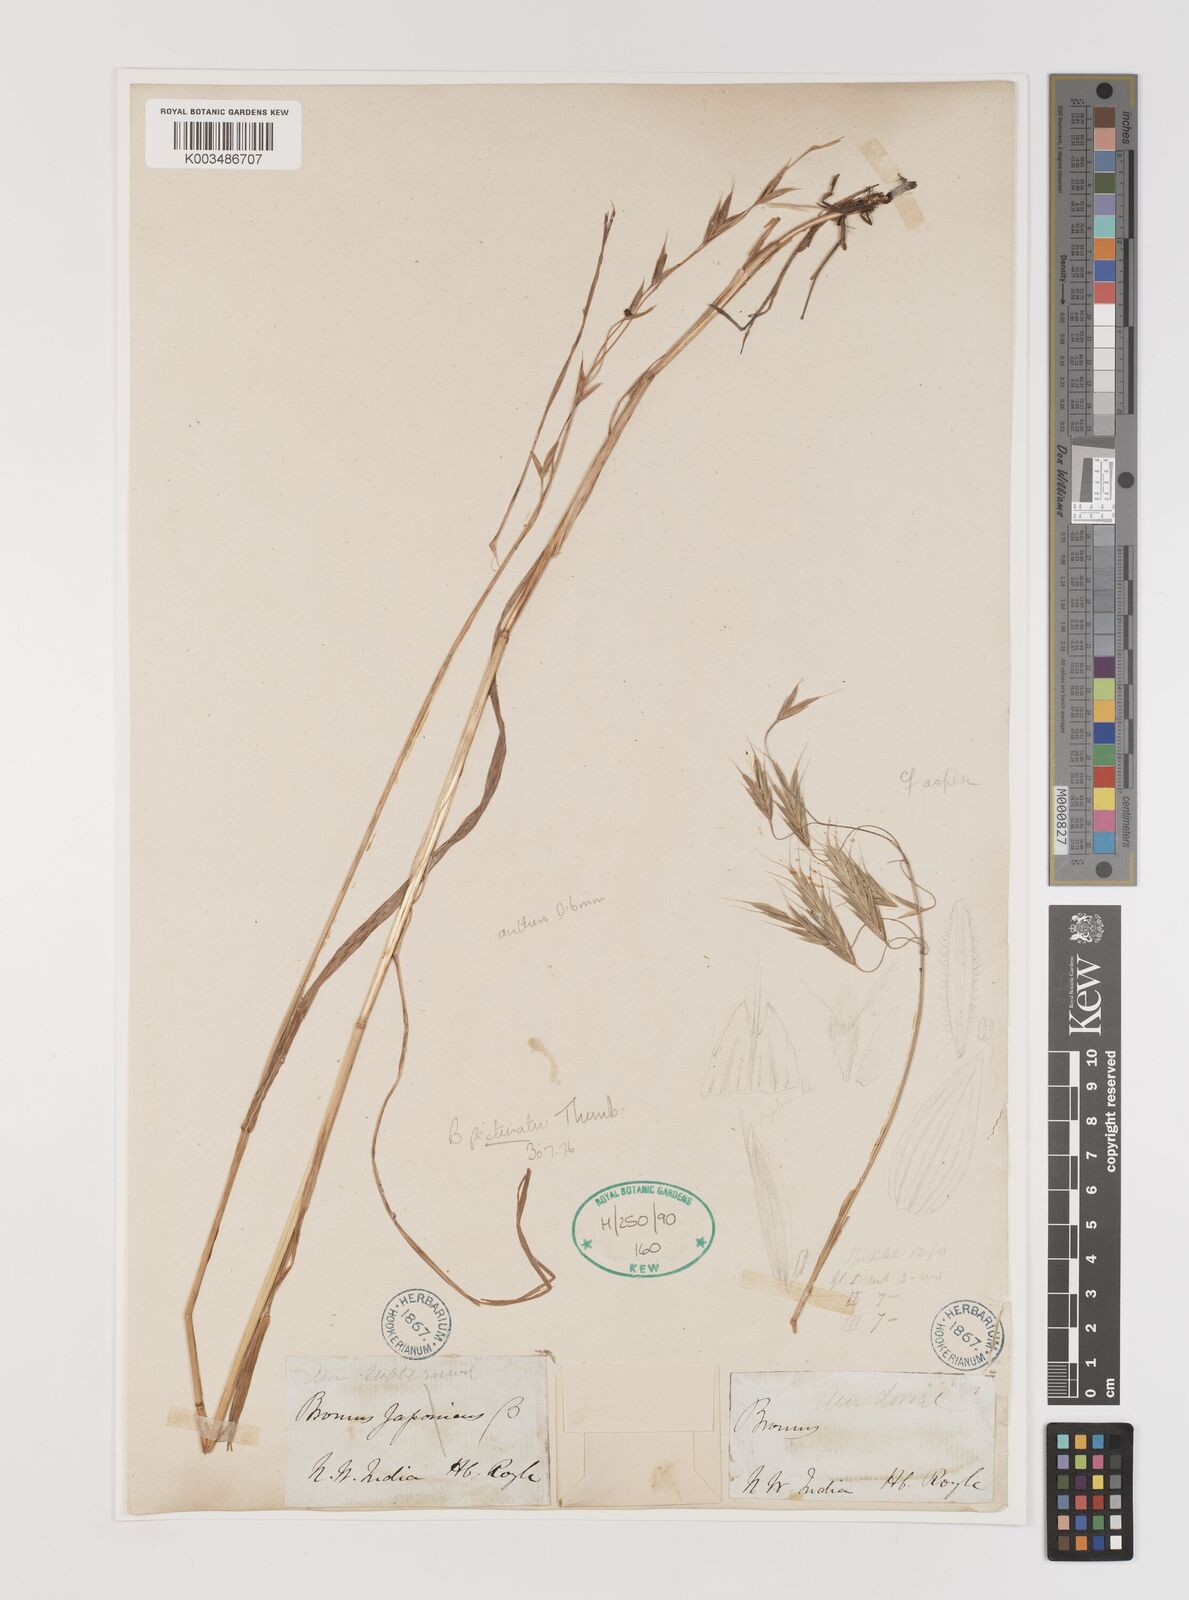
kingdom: Plantae
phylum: Tracheophyta
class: Liliopsida
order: Poales
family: Poaceae
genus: Bromus
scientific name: Bromus pectinatus
